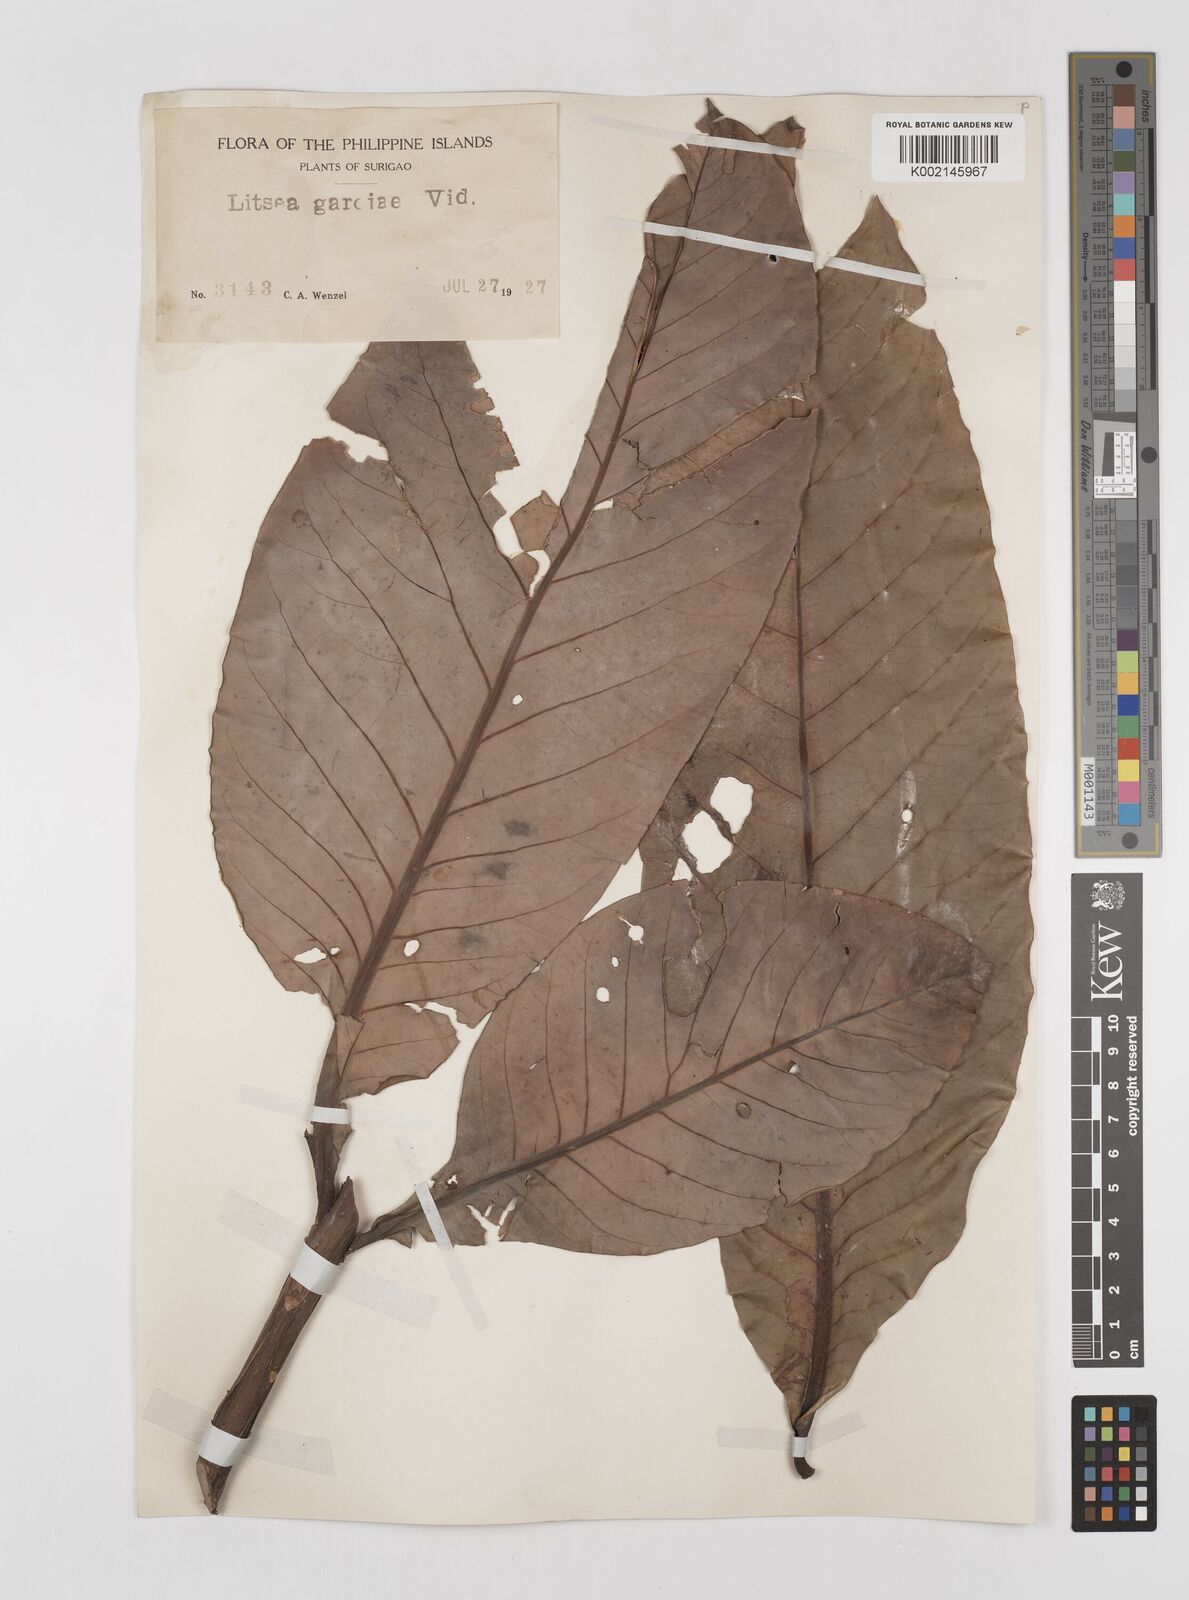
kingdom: Plantae
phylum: Tracheophyta
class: Magnoliopsida
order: Laurales
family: Lauraceae
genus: Litsea
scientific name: Litsea garciae
